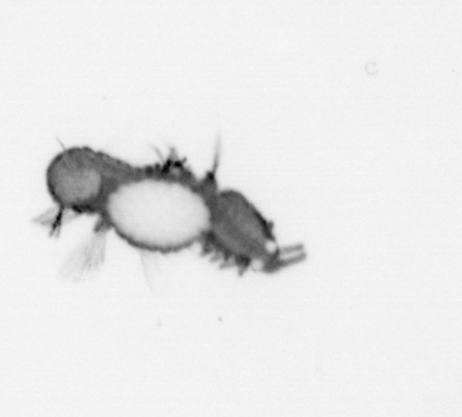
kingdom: Animalia
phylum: Annelida
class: Polychaeta
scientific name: Polychaeta
